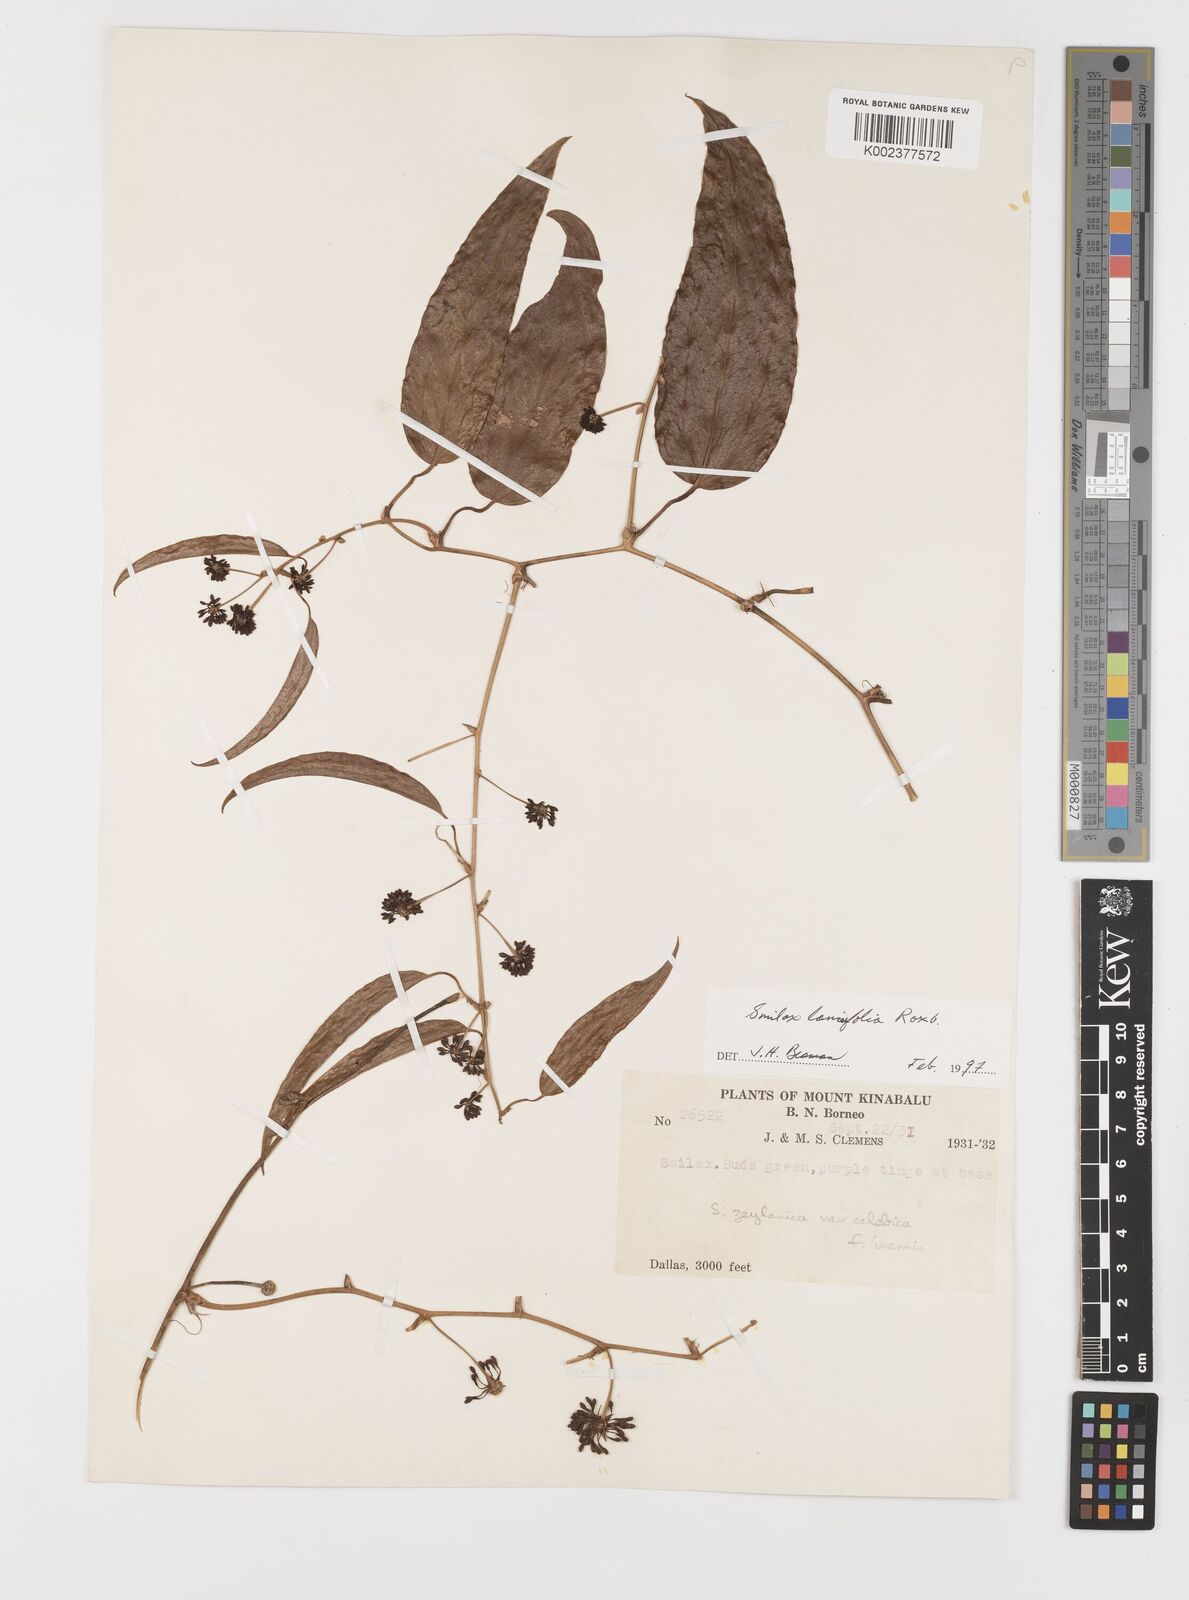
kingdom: Plantae
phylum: Tracheophyta
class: Liliopsida
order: Liliales
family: Smilacaceae
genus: Smilax
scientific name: Smilax lanceifolia
